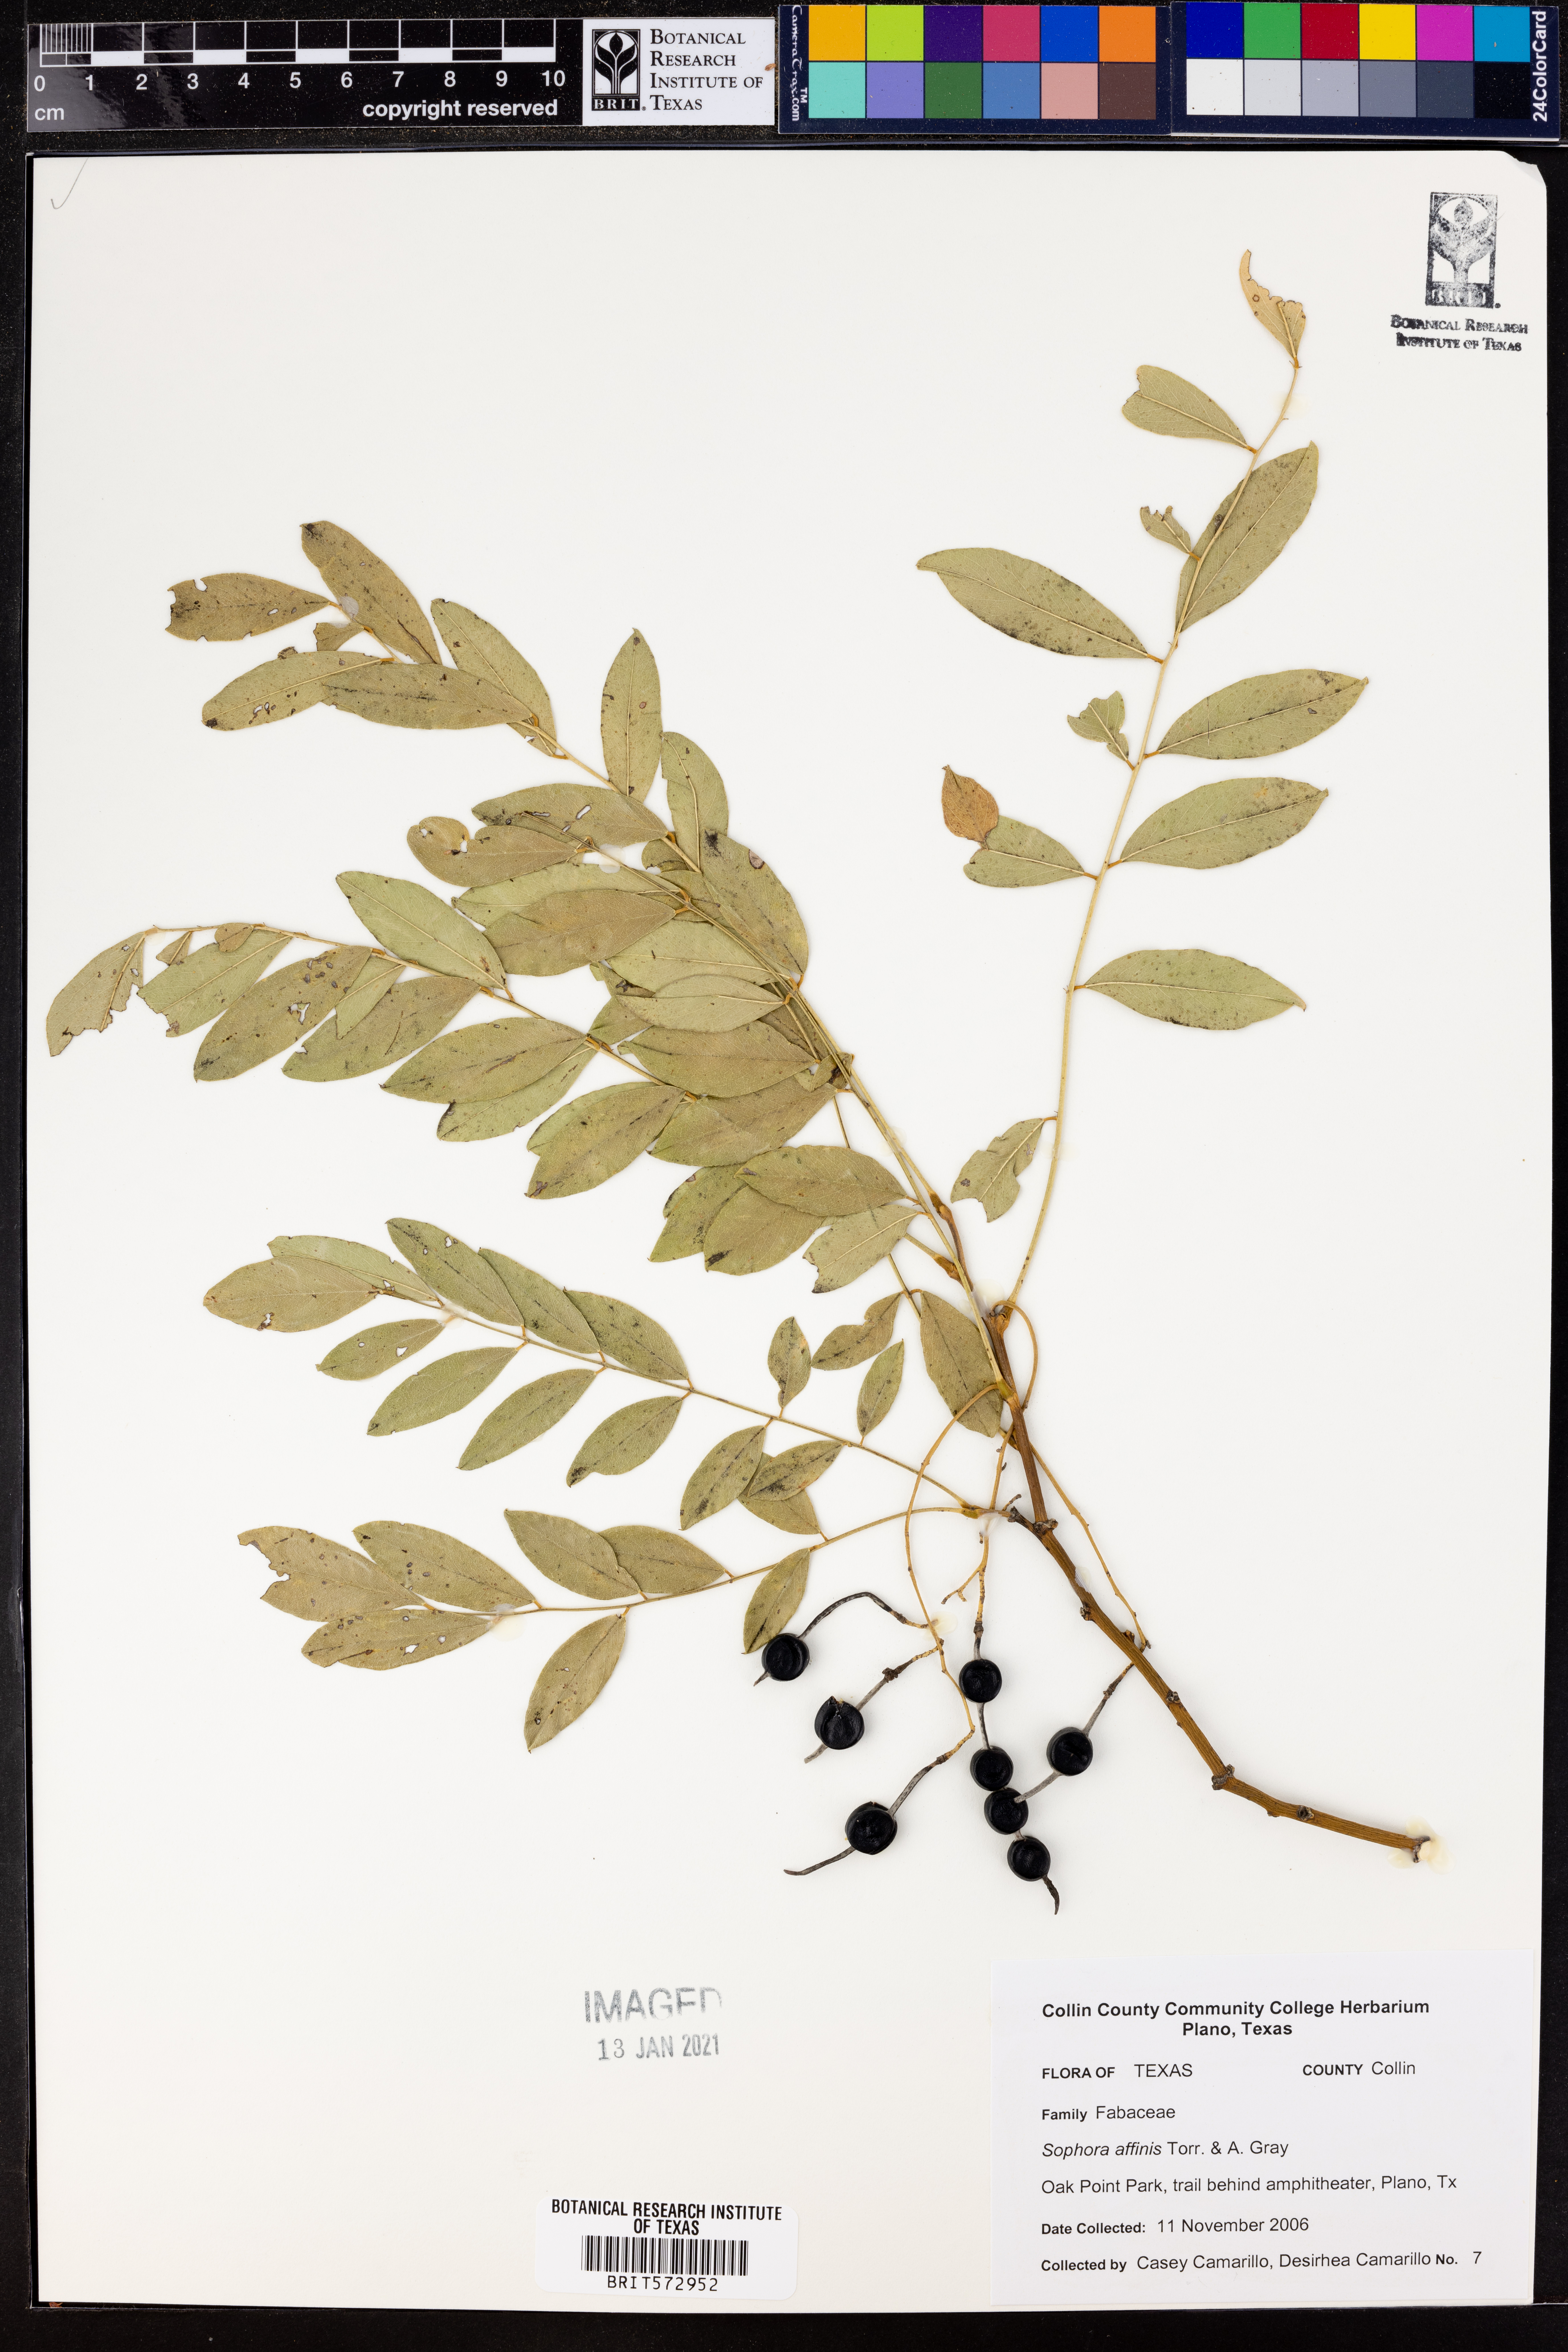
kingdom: Plantae
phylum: Tracheophyta
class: Magnoliopsida
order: Fabales
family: Fabaceae
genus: Styphnolobium
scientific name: Styphnolobium affine
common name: Texas sophora
